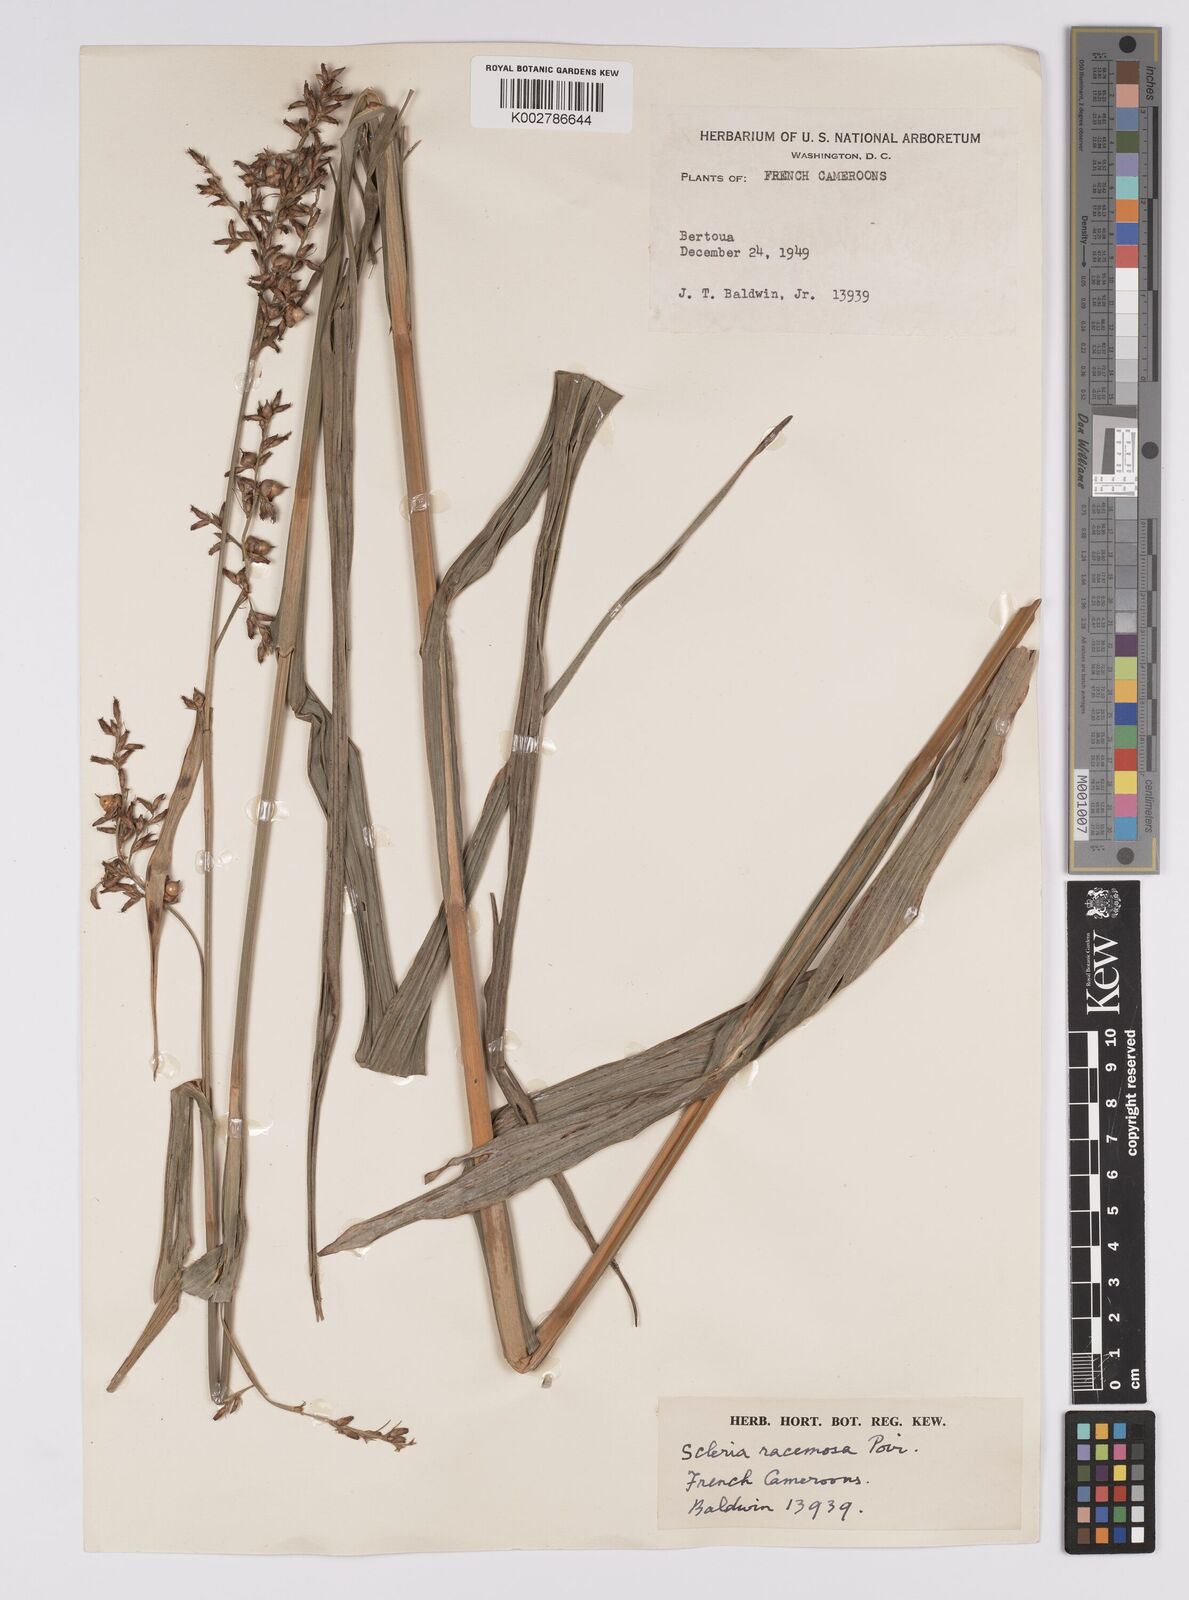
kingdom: Plantae
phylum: Tracheophyta
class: Liliopsida
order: Poales
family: Cyperaceae
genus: Scleria
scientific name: Scleria racemosa
